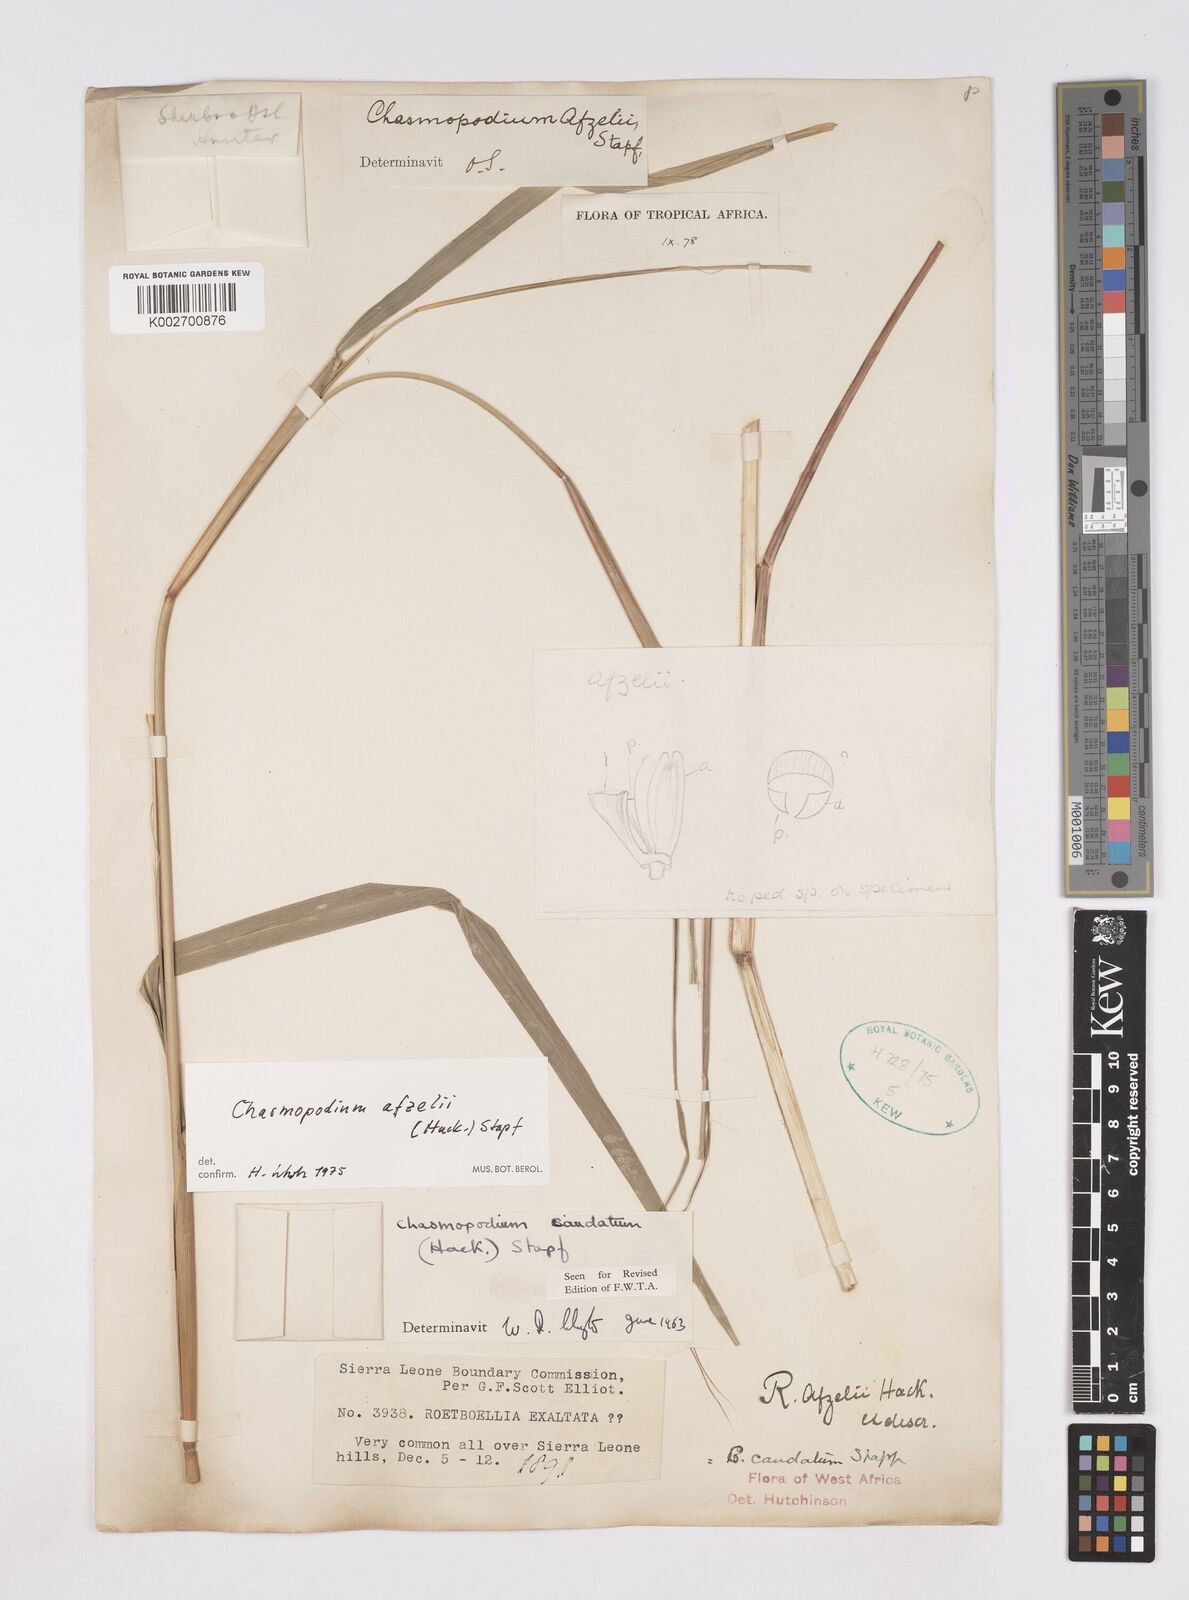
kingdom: Plantae
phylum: Tracheophyta
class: Liliopsida
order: Poales
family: Poaceae
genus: Chasmopodium
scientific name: Chasmopodium caudatum
